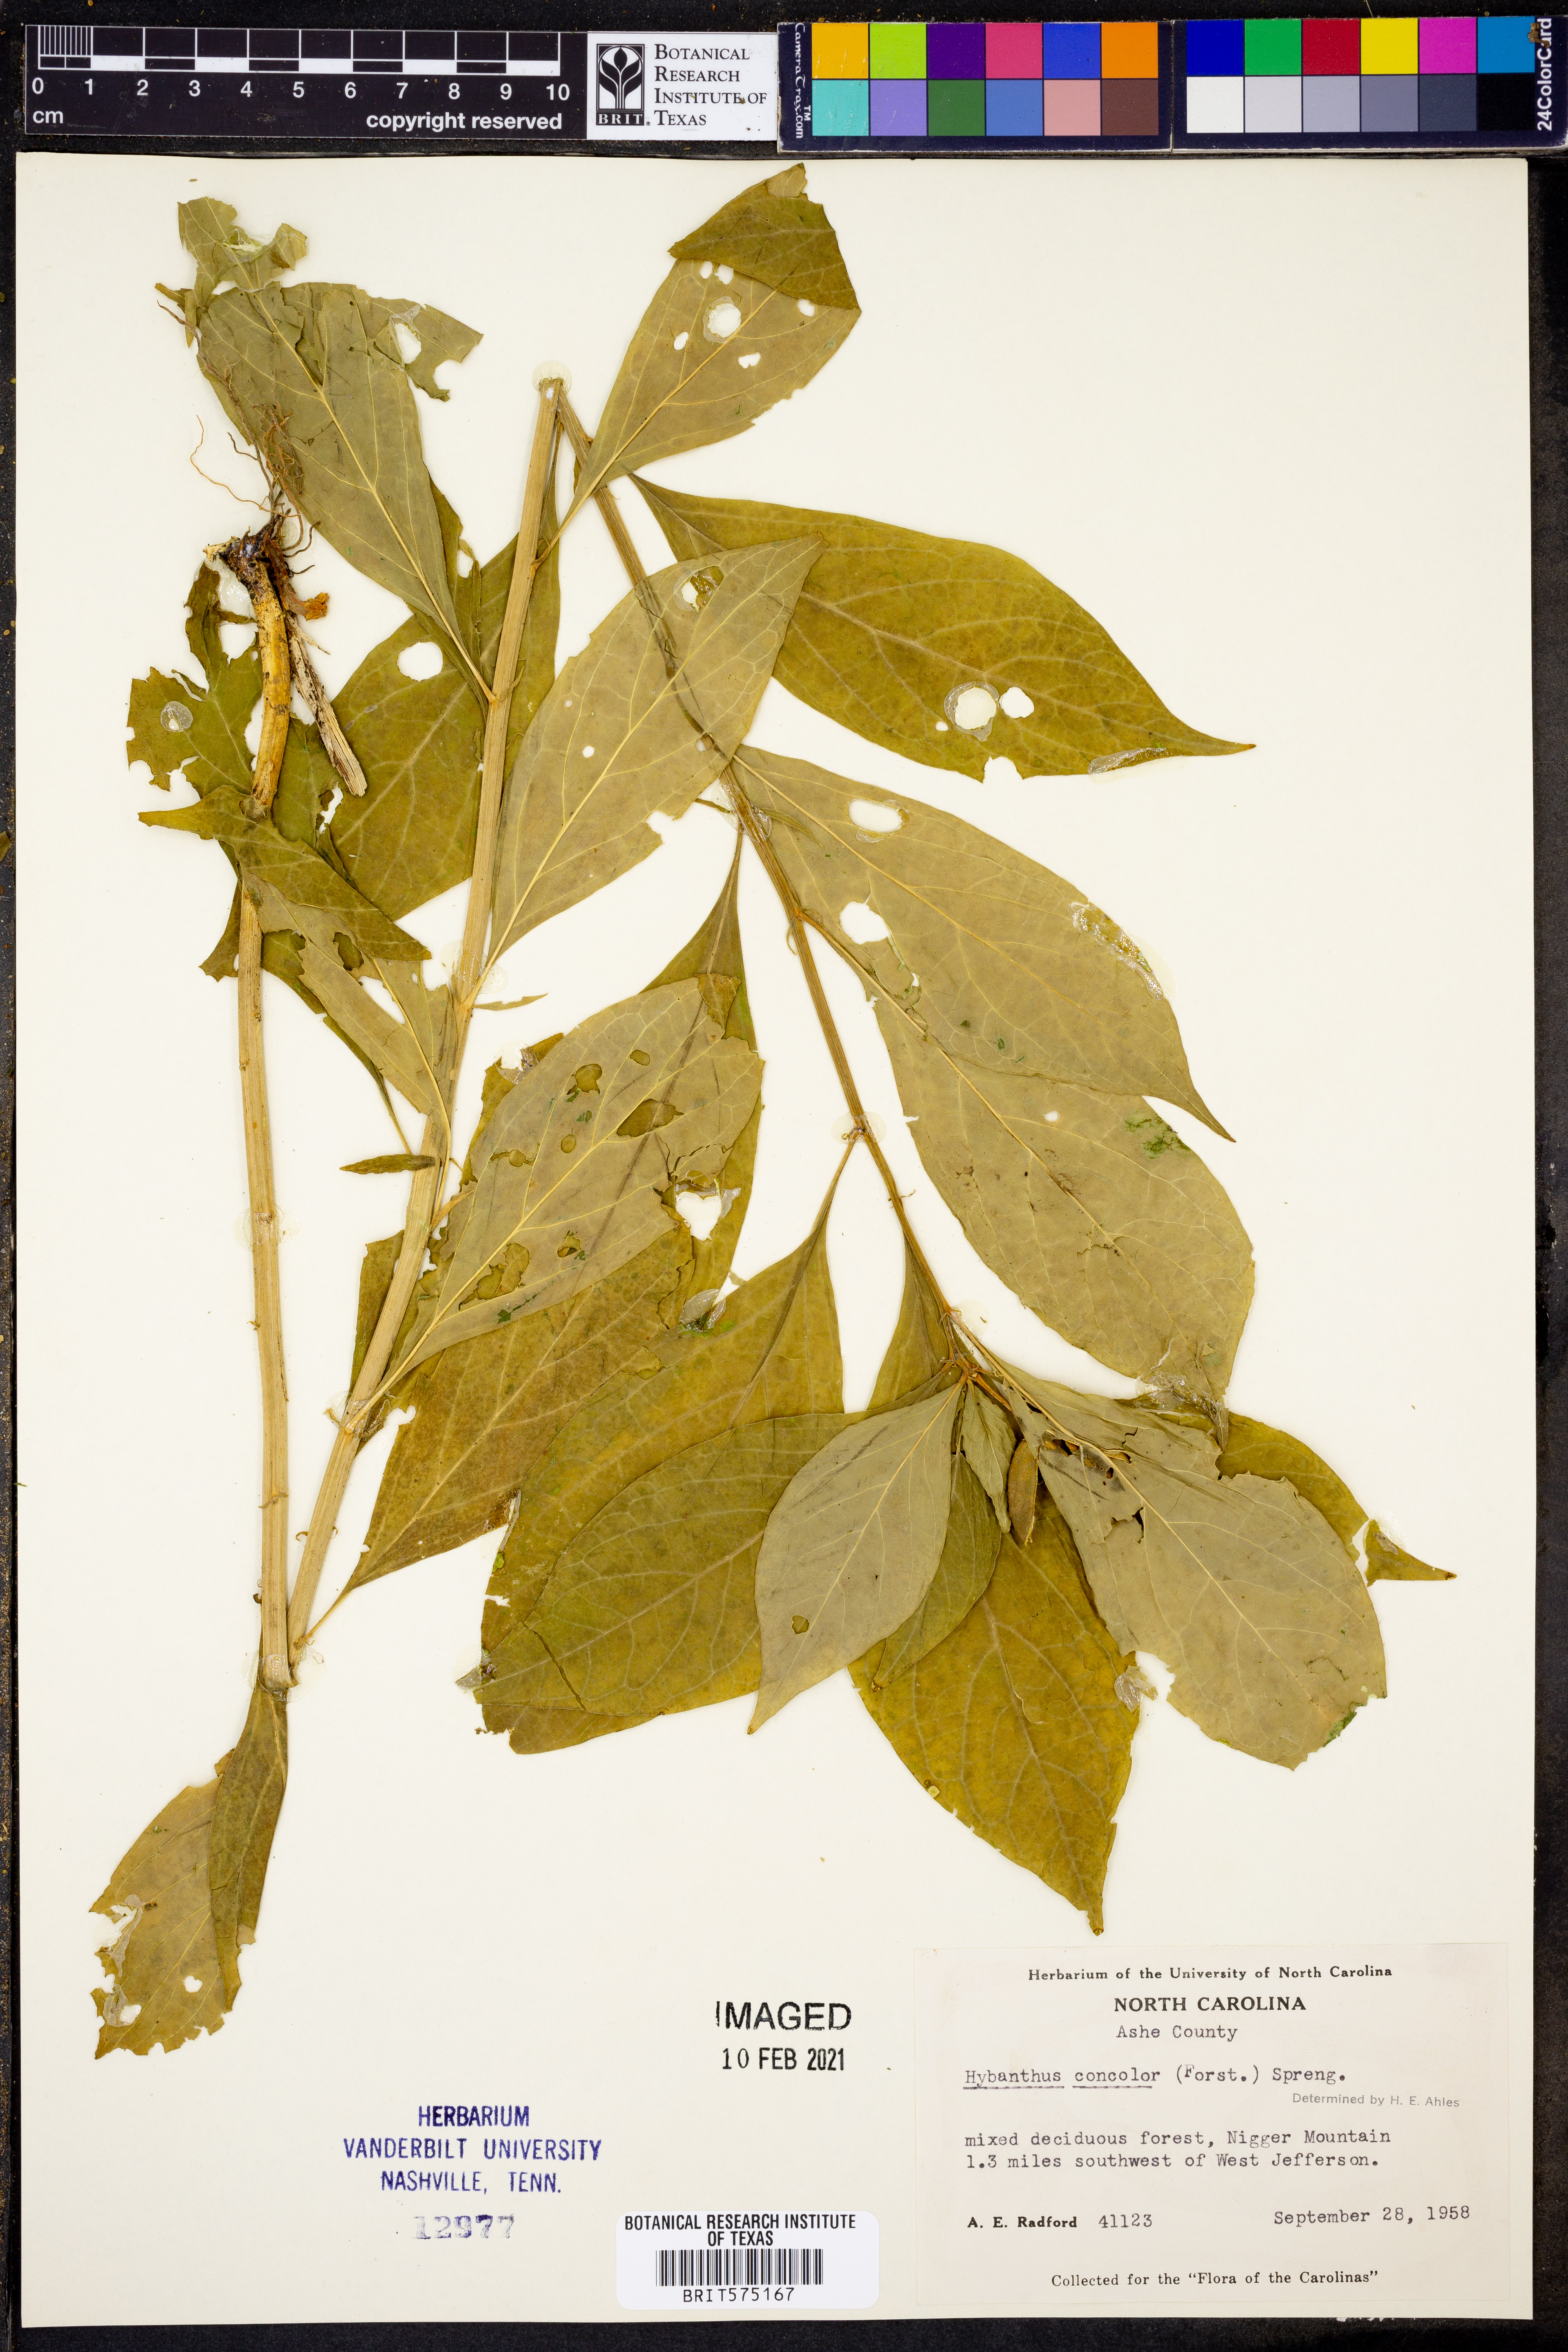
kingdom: Plantae
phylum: Tracheophyta
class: Magnoliopsida
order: Malpighiales
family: Violaceae
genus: Cubelium
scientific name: Cubelium concolor
